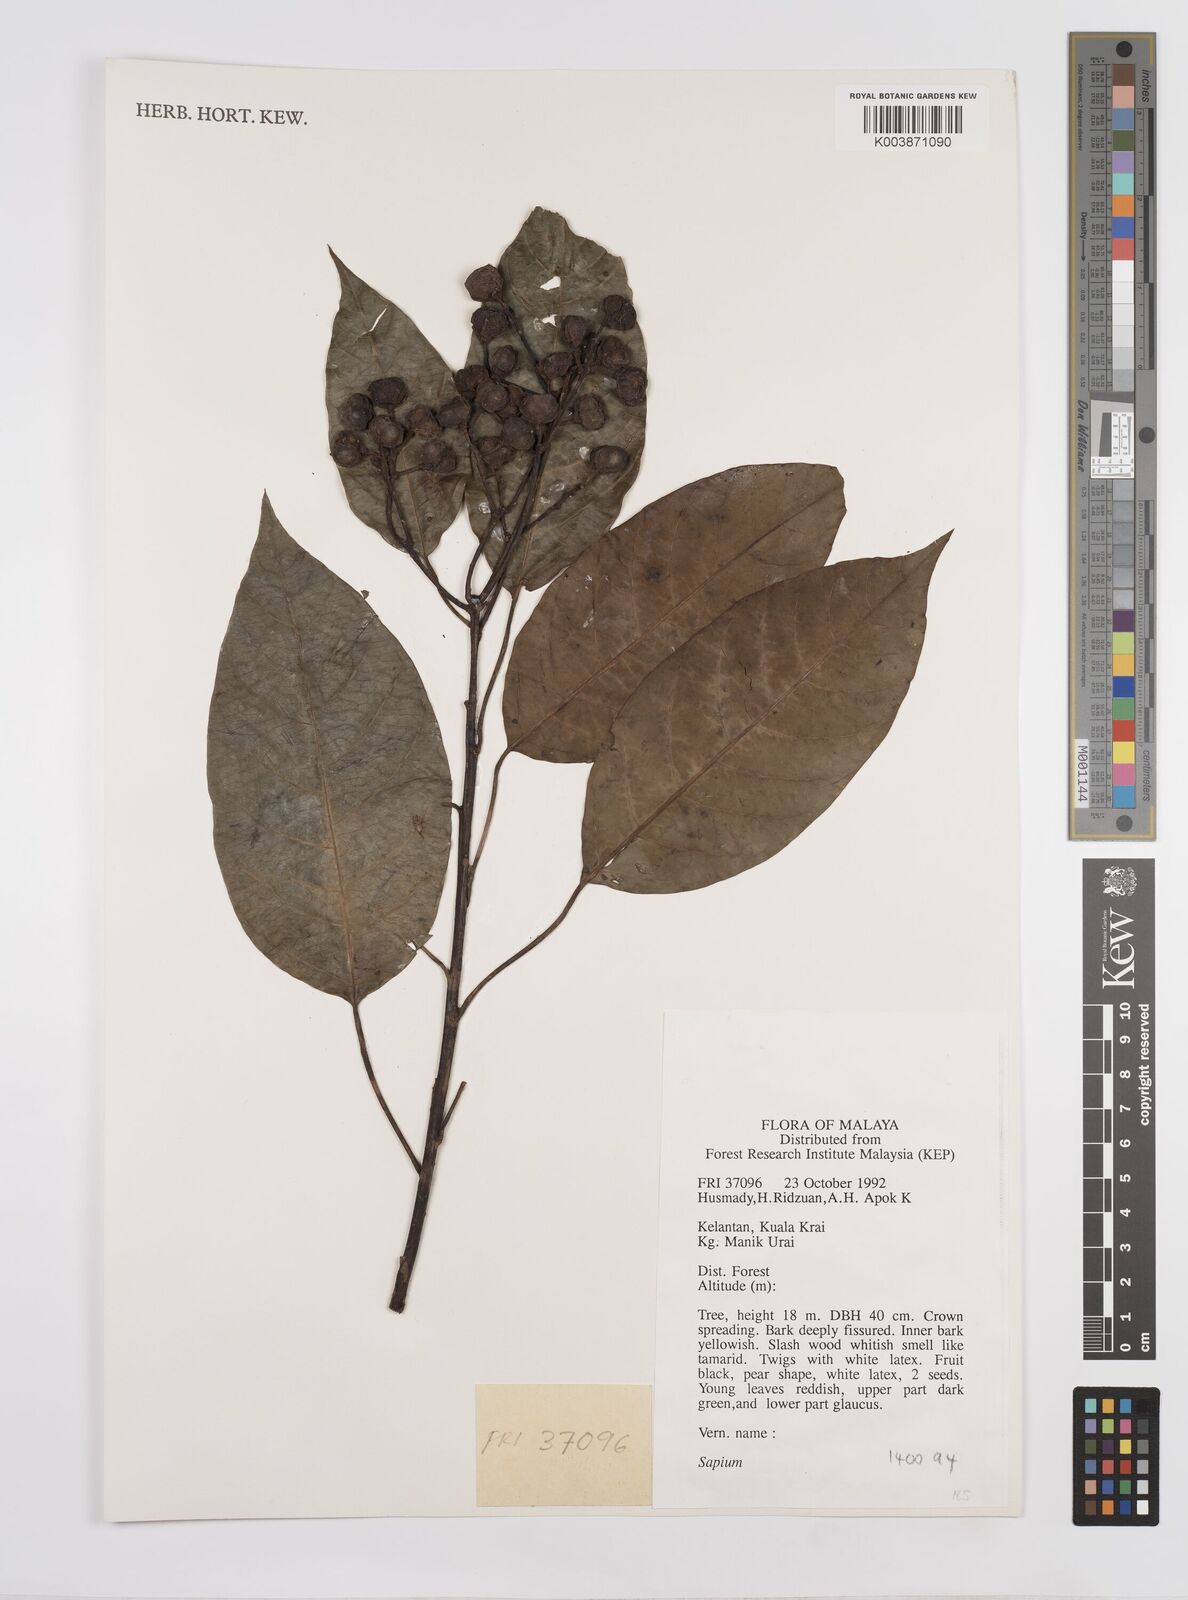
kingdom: Plantae
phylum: Tracheophyta
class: Magnoliopsida
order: Malpighiales
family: Euphorbiaceae
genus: Triadica
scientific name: Triadica cochinchinensis
